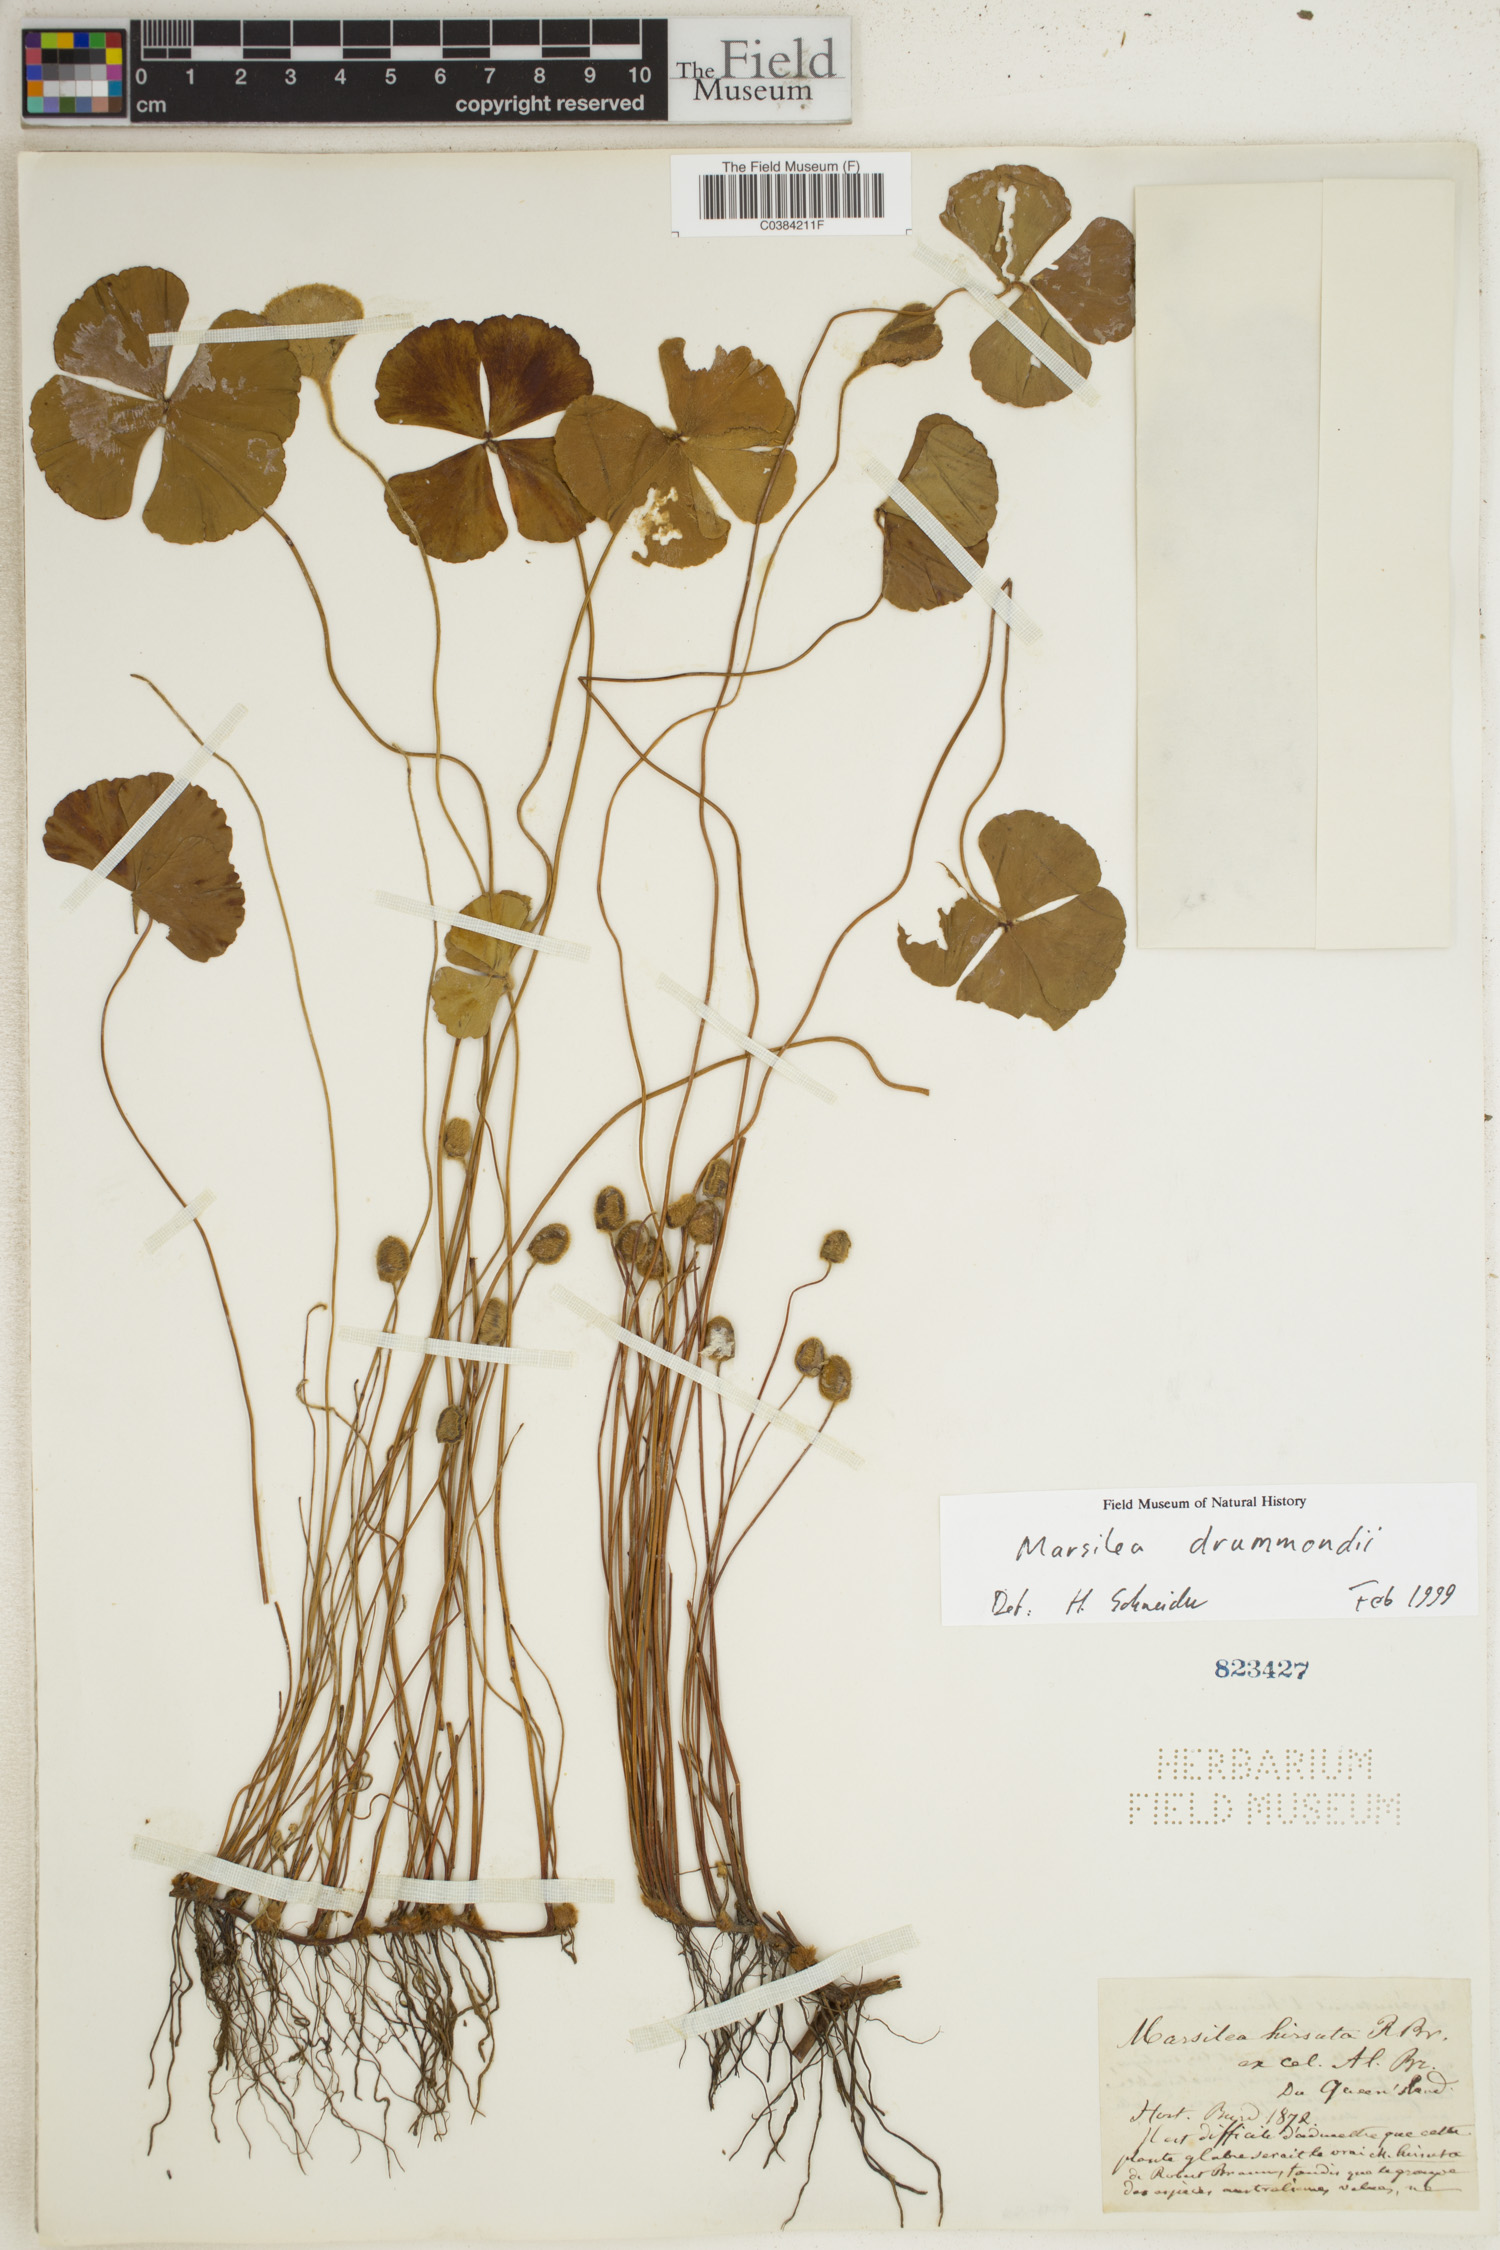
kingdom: Plantae
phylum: Tracheophyta
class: Polypodiopsida
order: Salviniales
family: Marsileaceae
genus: Marsilea
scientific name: Marsilea drummondii
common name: Nardoo
